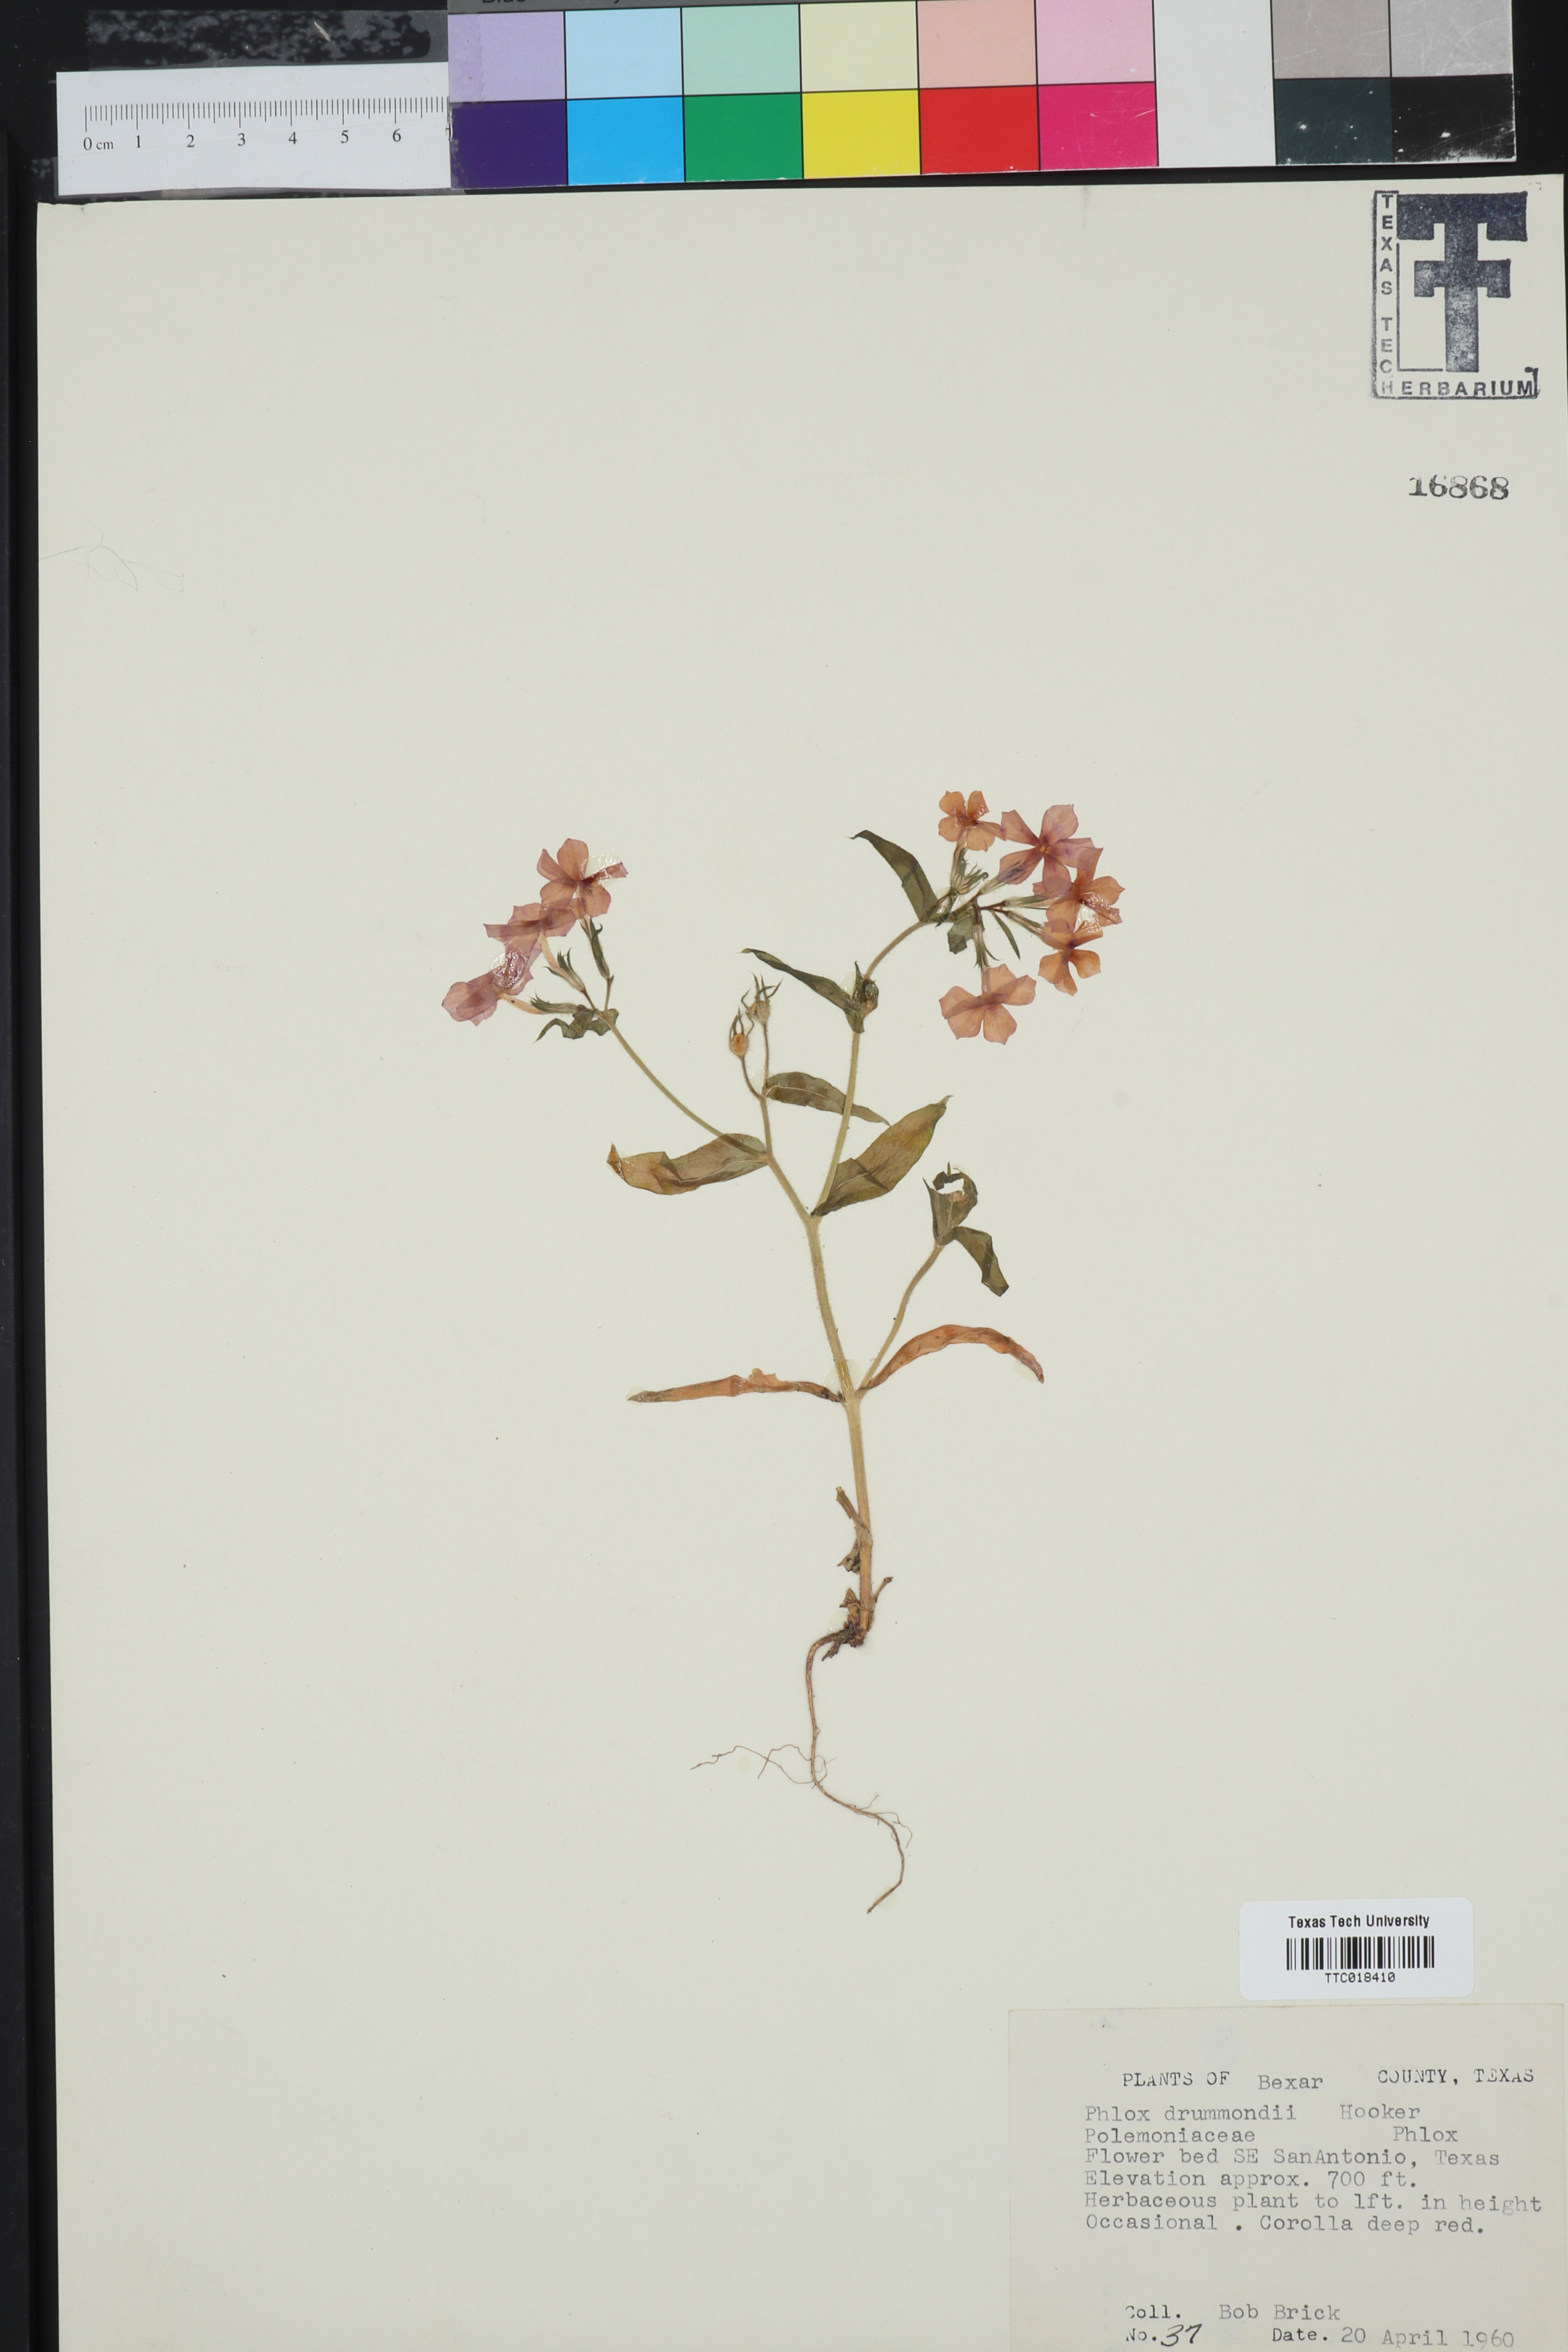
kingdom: Plantae
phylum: Tracheophyta
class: Magnoliopsida
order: Ericales
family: Polemoniaceae
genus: Phlox
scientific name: Phlox drummondii
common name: Drummond's phlox
